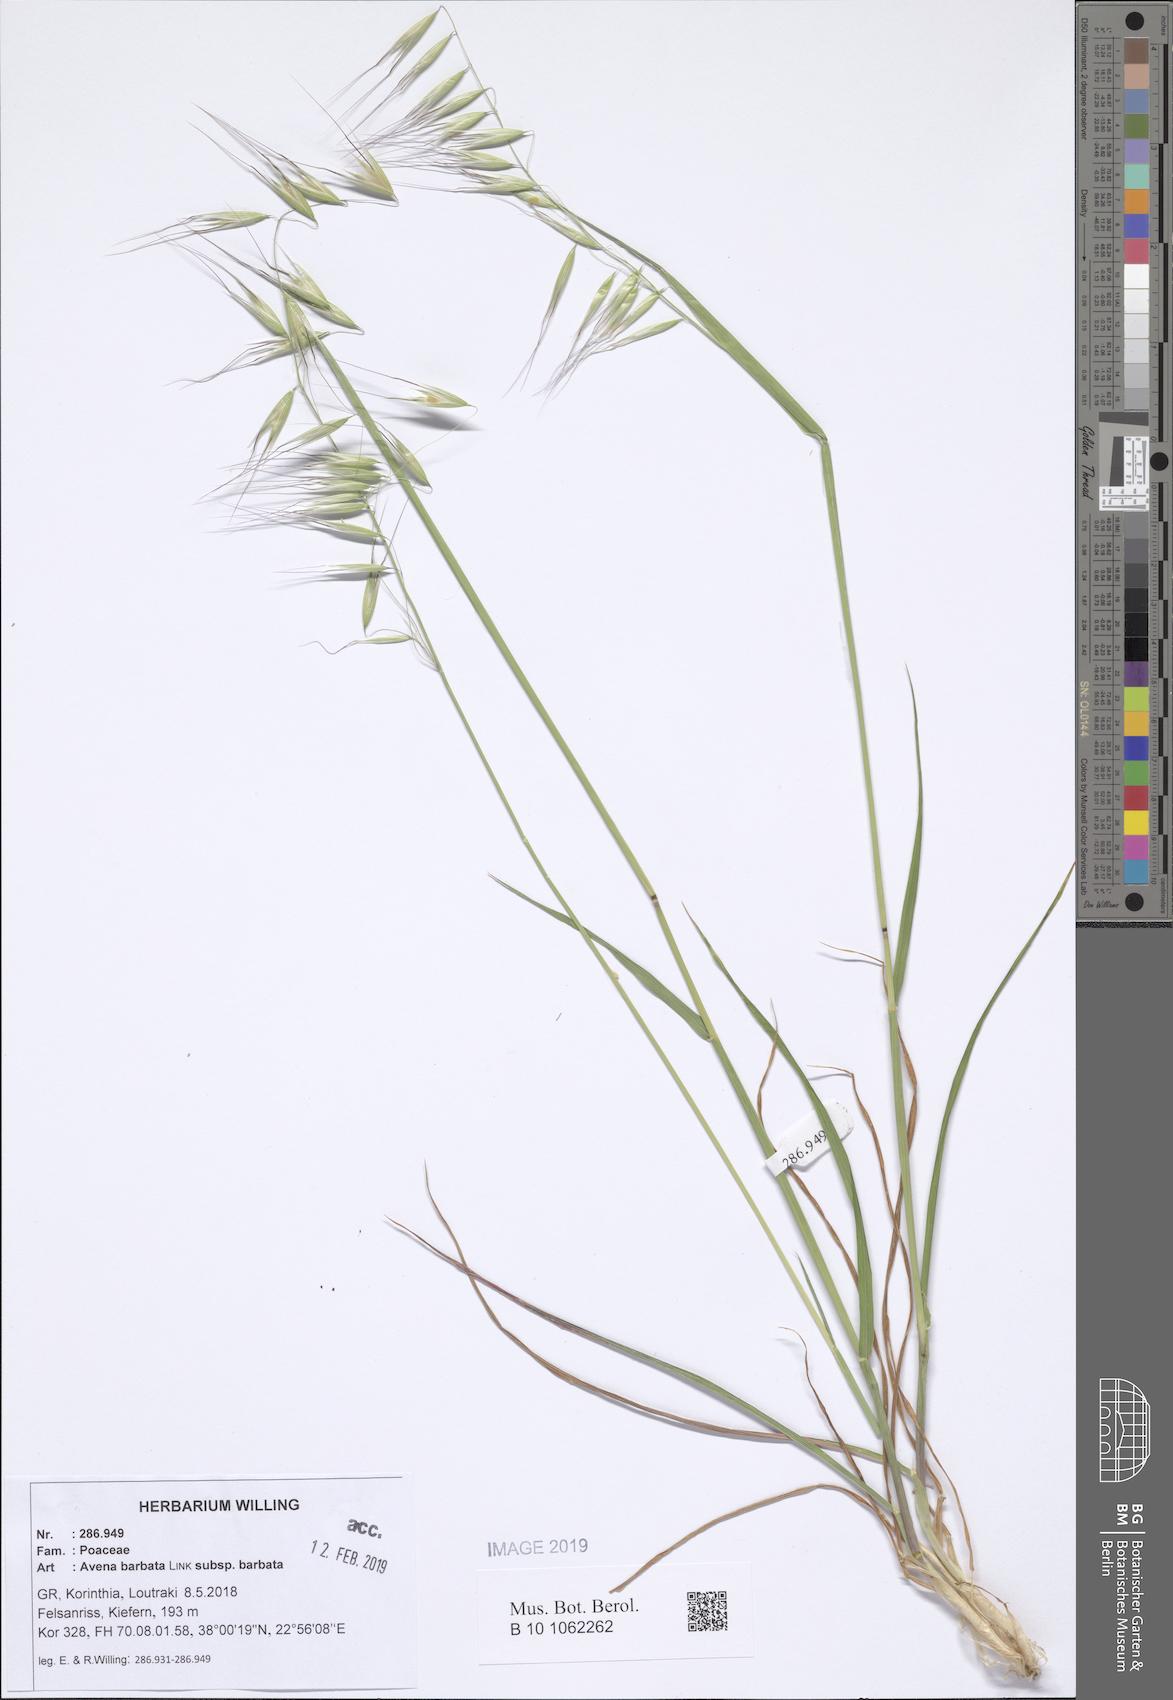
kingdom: Plantae
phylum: Tracheophyta
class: Liliopsida
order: Poales
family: Poaceae
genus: Avena
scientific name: Avena barbata
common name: Slender oat
